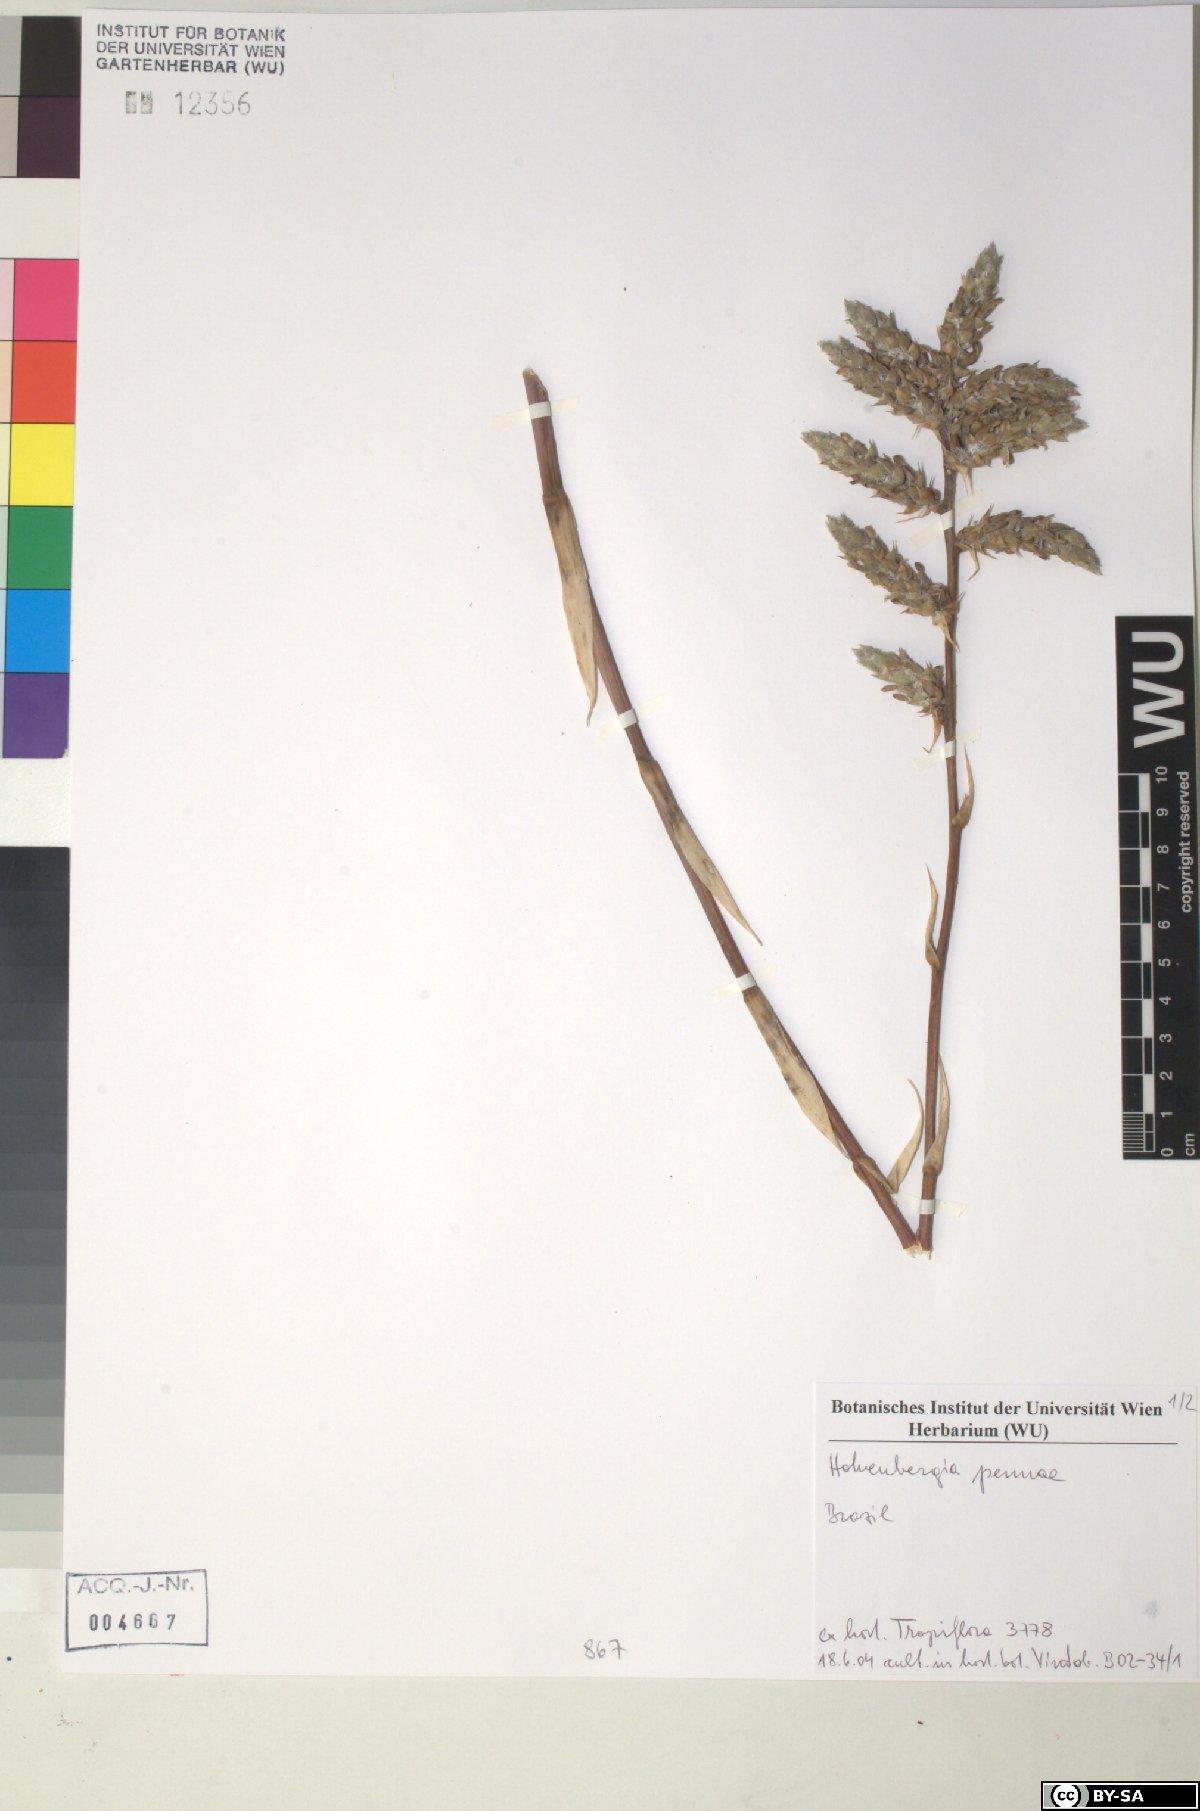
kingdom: Plantae
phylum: Tracheophyta
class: Liliopsida
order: Poales
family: Bromeliaceae
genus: Hohenbergia
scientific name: Hohenbergia pennae
